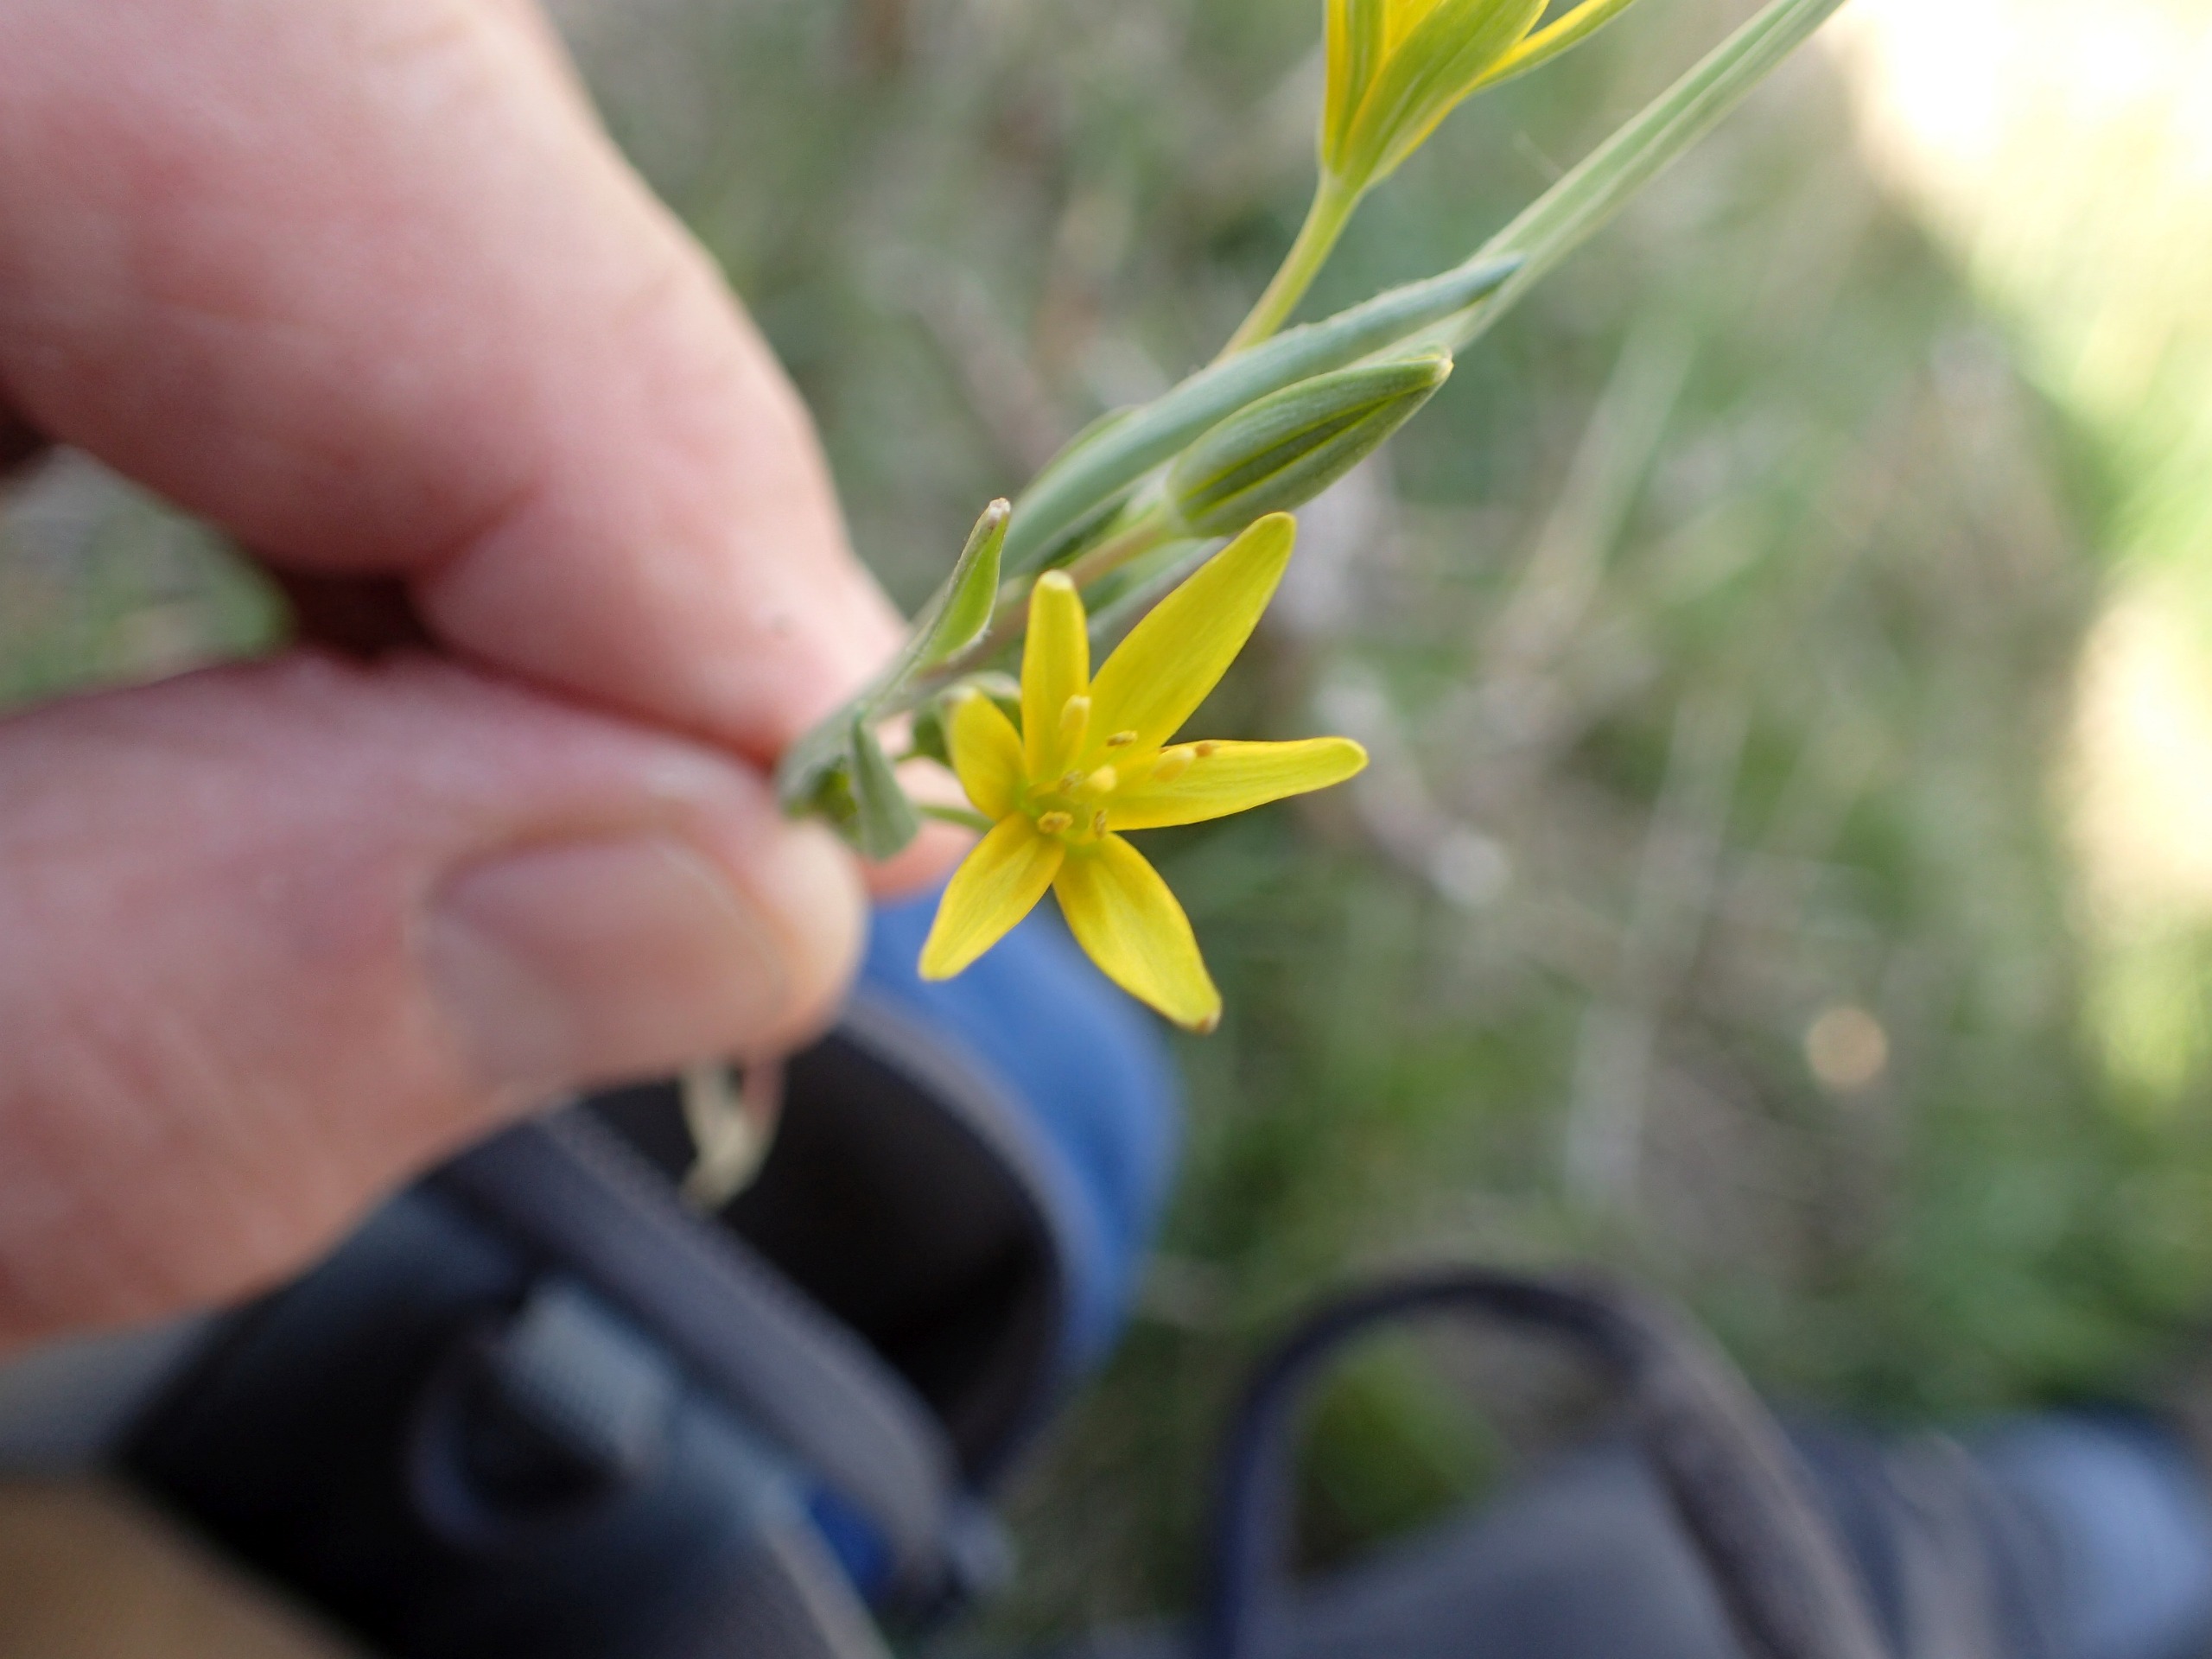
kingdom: Plantae
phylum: Tracheophyta
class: Liliopsida
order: Liliales
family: Liliaceae
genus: Gagea
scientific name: Gagea pratensis
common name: Eng-guldstjerne
